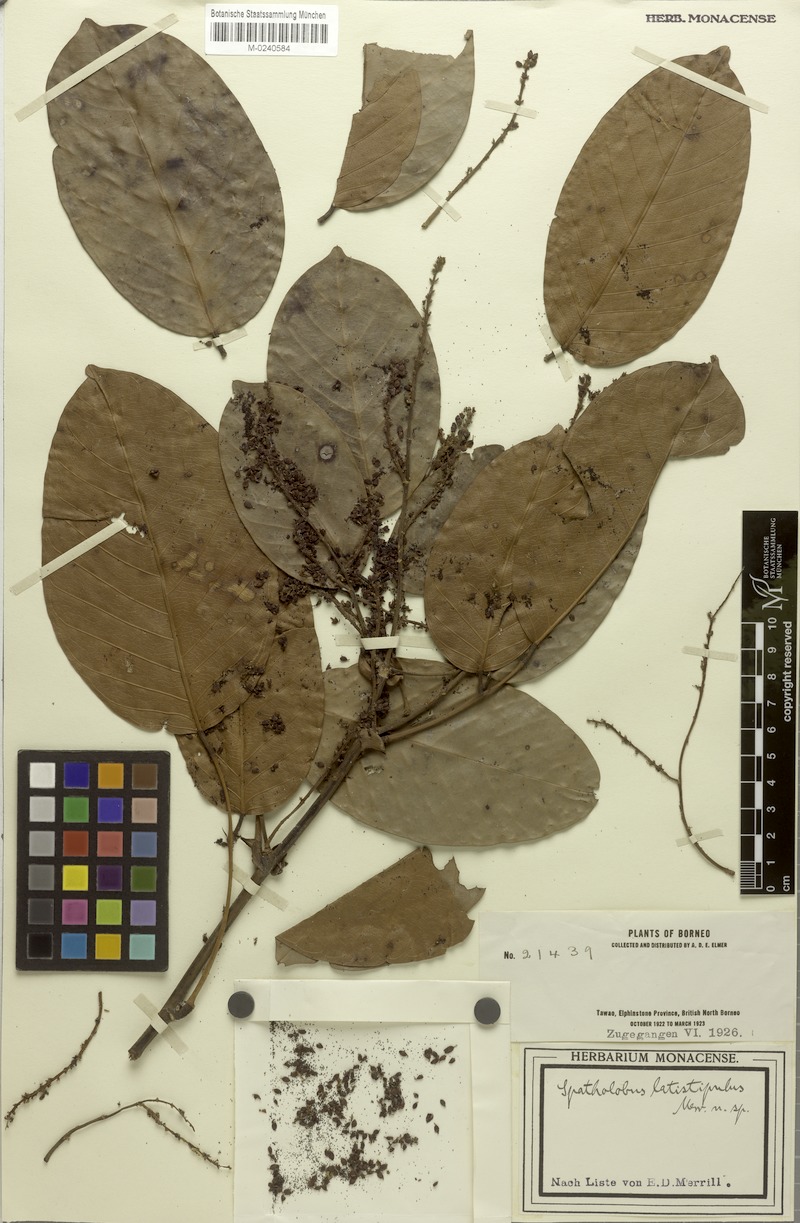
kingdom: Plantae
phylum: Tracheophyta
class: Magnoliopsida
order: Fabales
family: Fabaceae
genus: Spatholobus
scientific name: Spatholobus latistipulus
